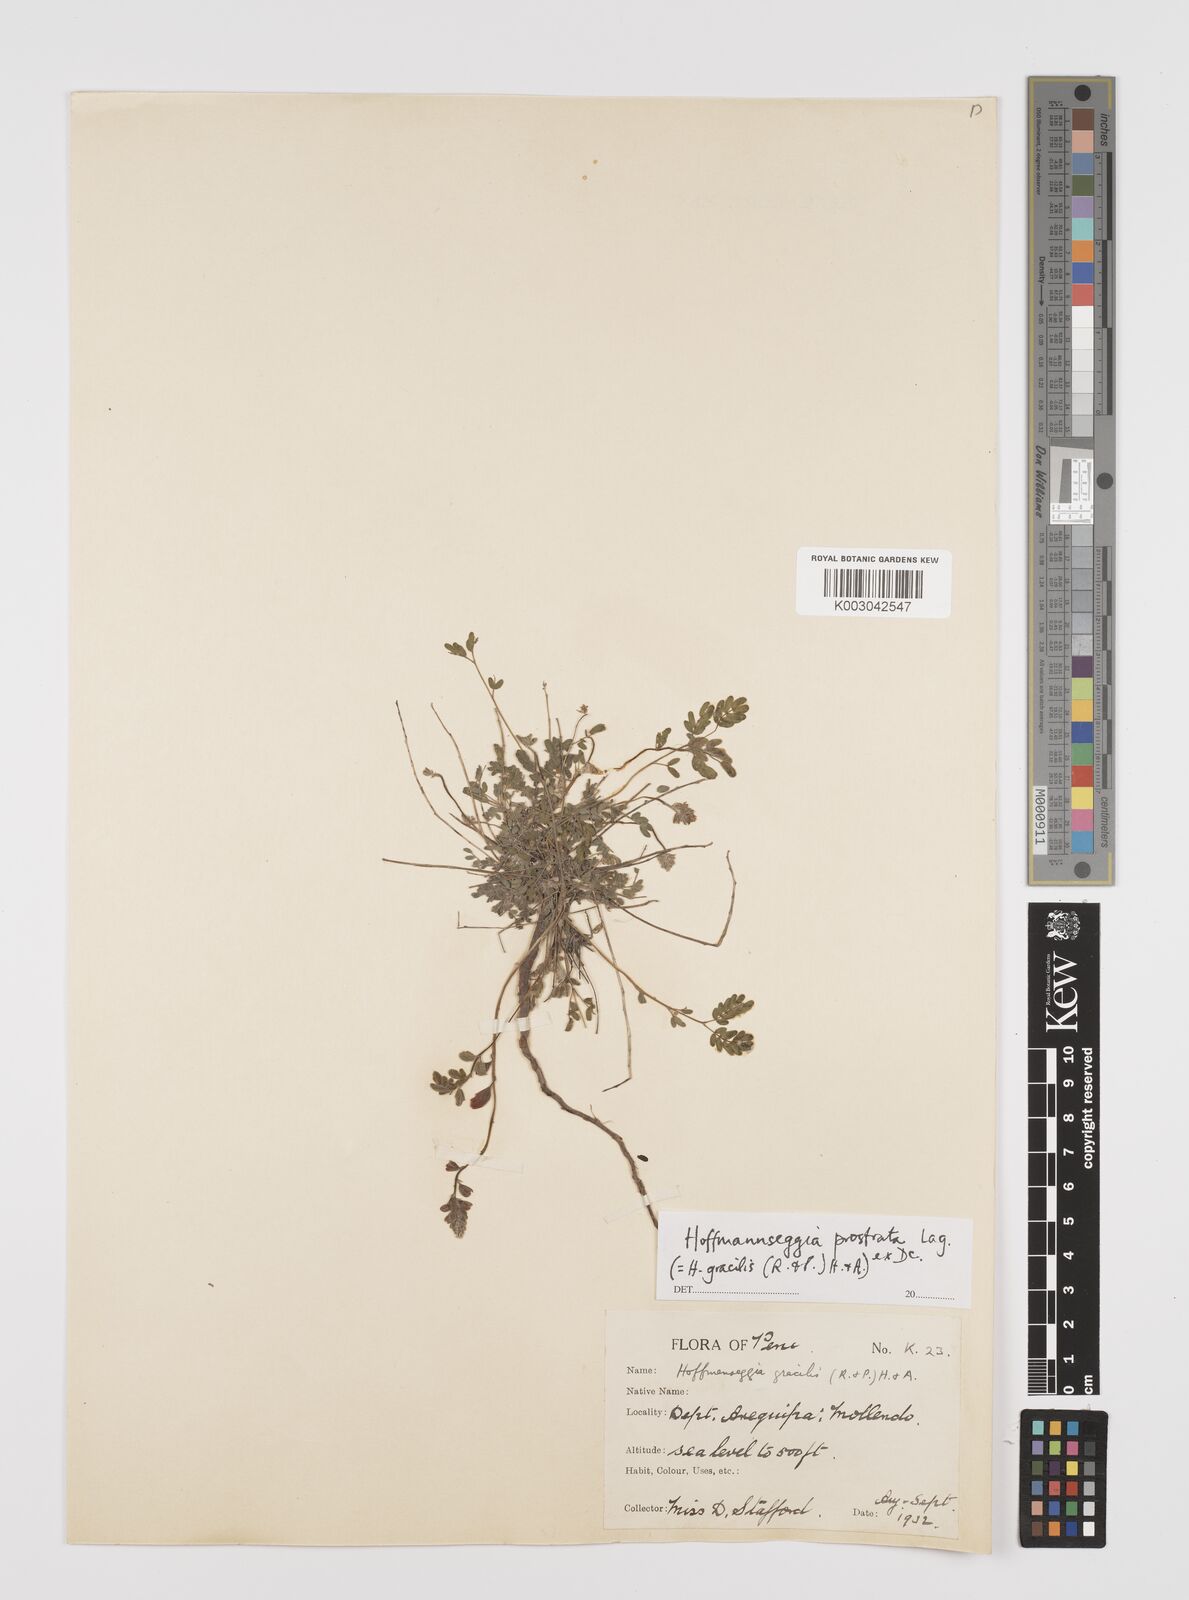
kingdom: Plantae
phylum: Tracheophyta
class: Magnoliopsida
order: Fabales
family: Fabaceae
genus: Hoffmannseggia
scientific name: Hoffmannseggia prostrata
